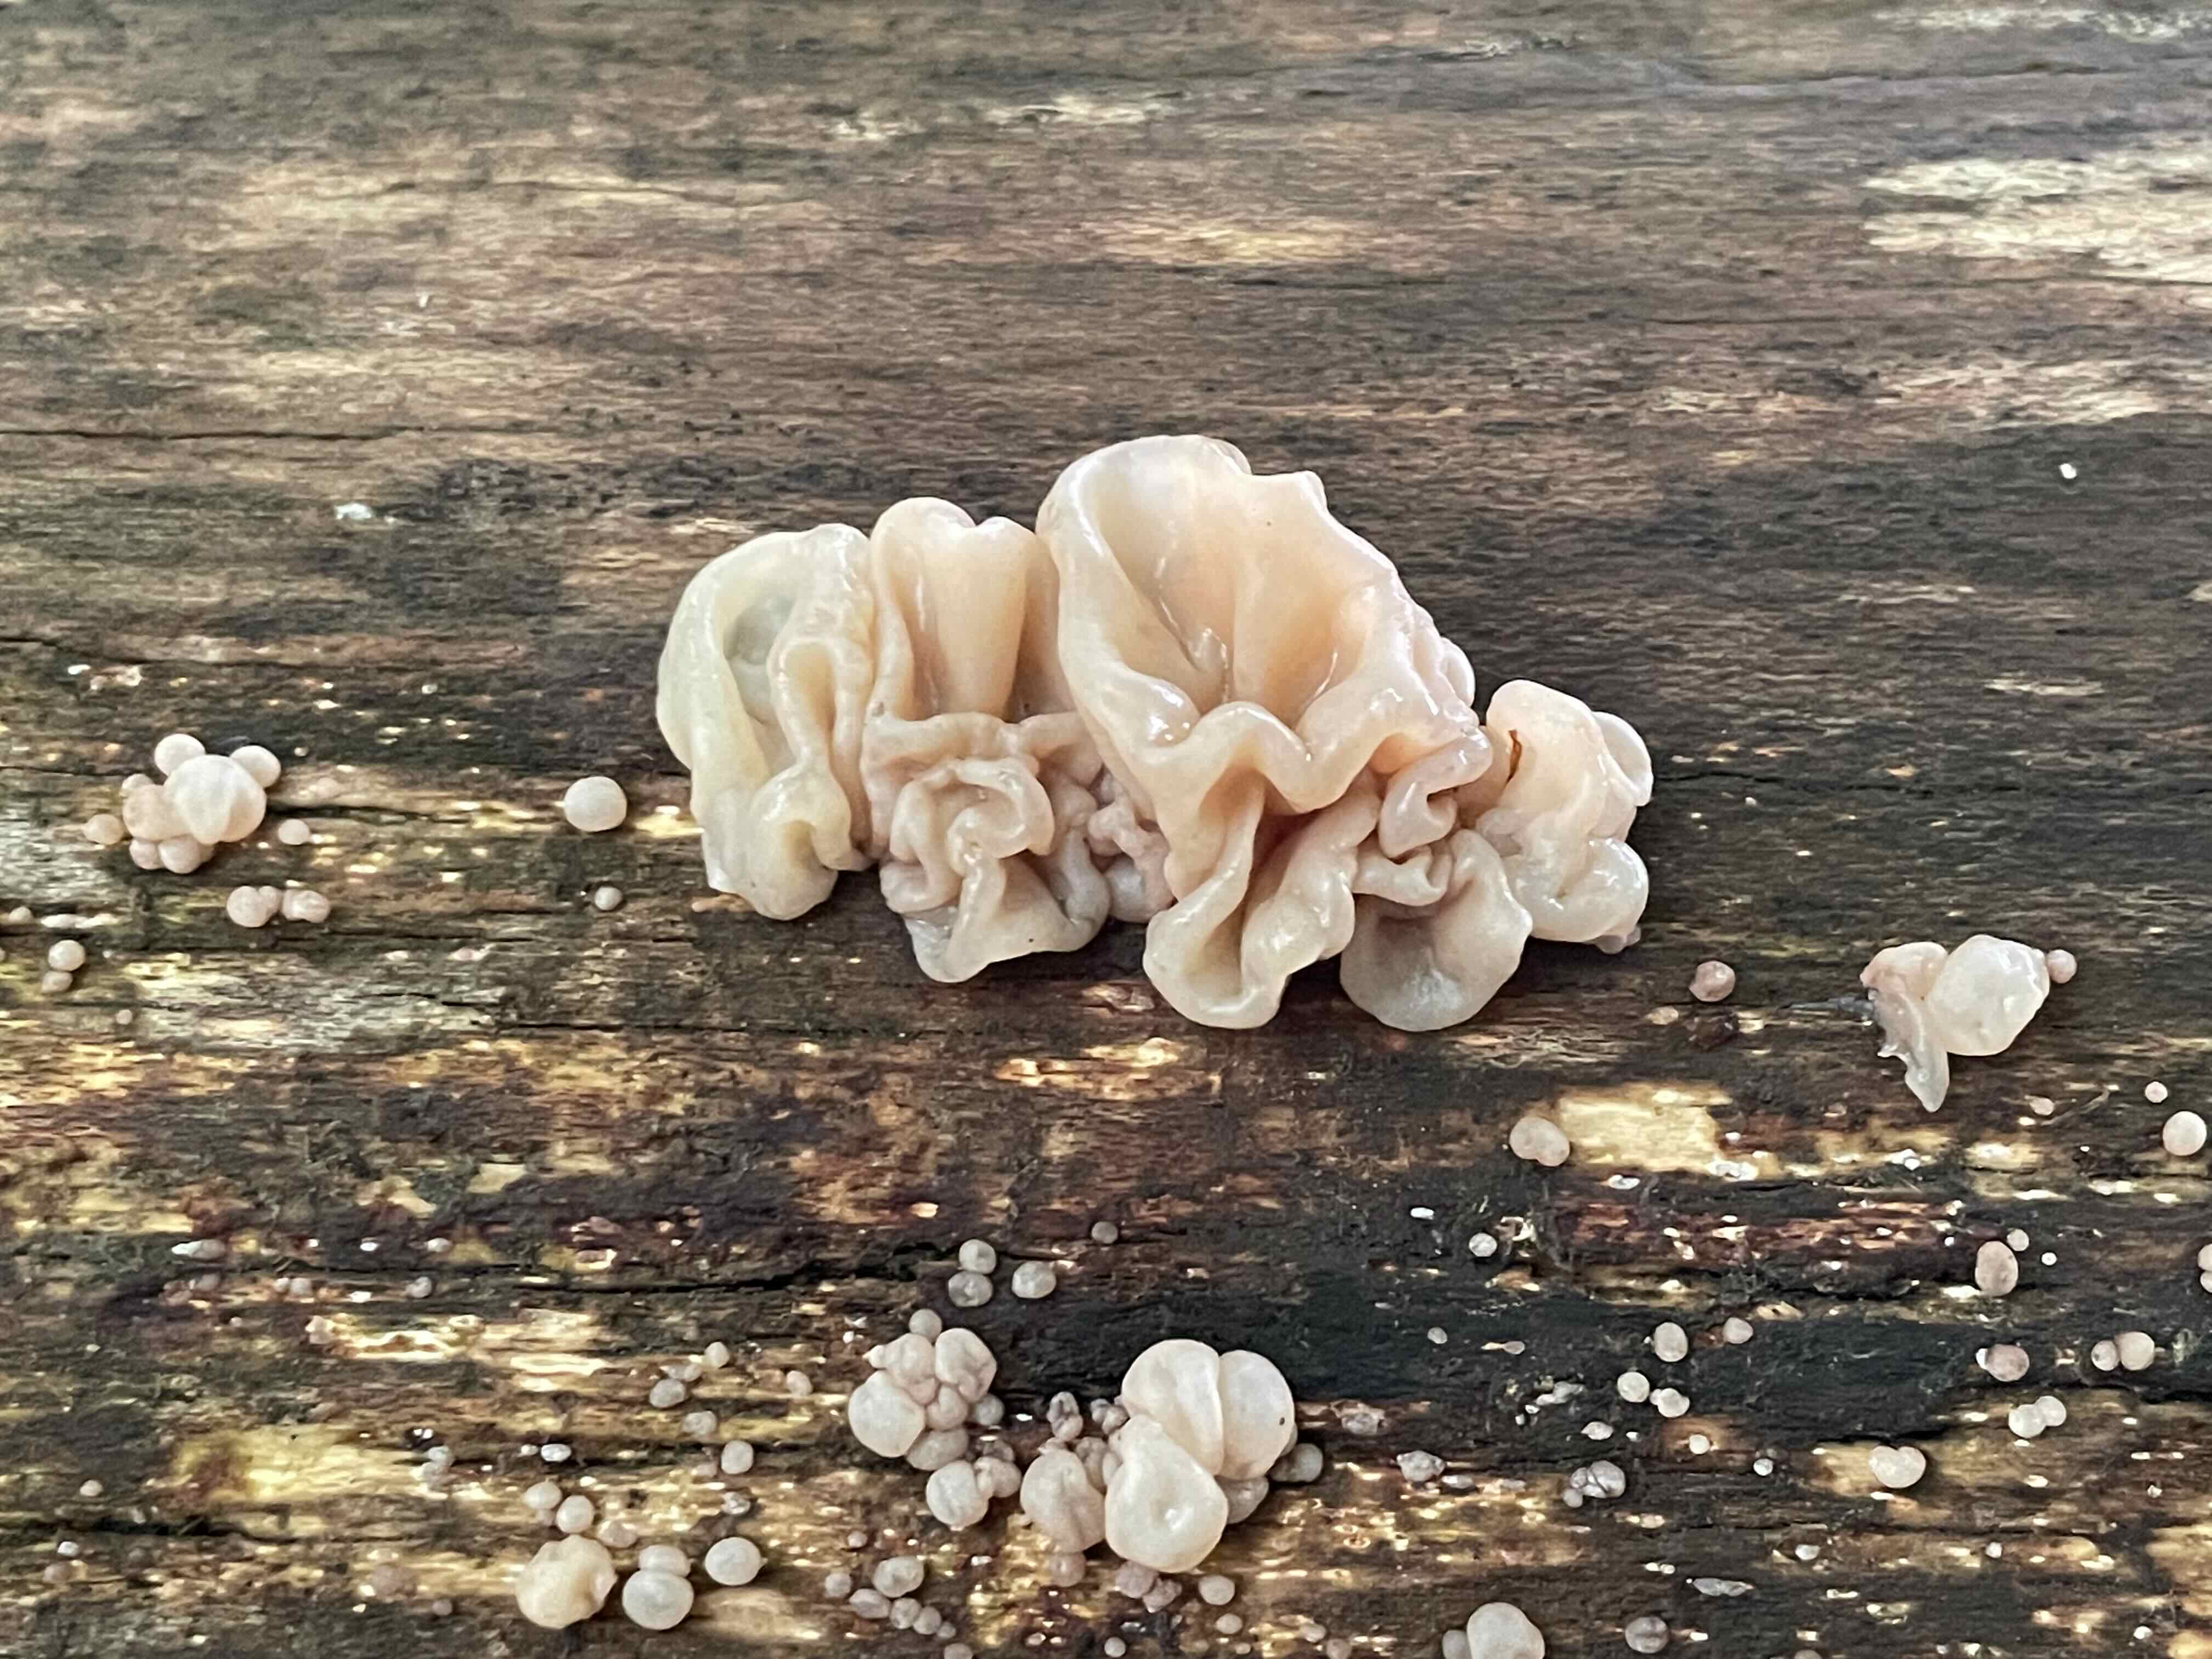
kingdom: Fungi
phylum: Basidiomycota
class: Agaricomycetes
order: Auriculariales
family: Auriculariaceae
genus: Auricularia
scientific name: Auricularia auricula-judae
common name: almindelig judasøre
